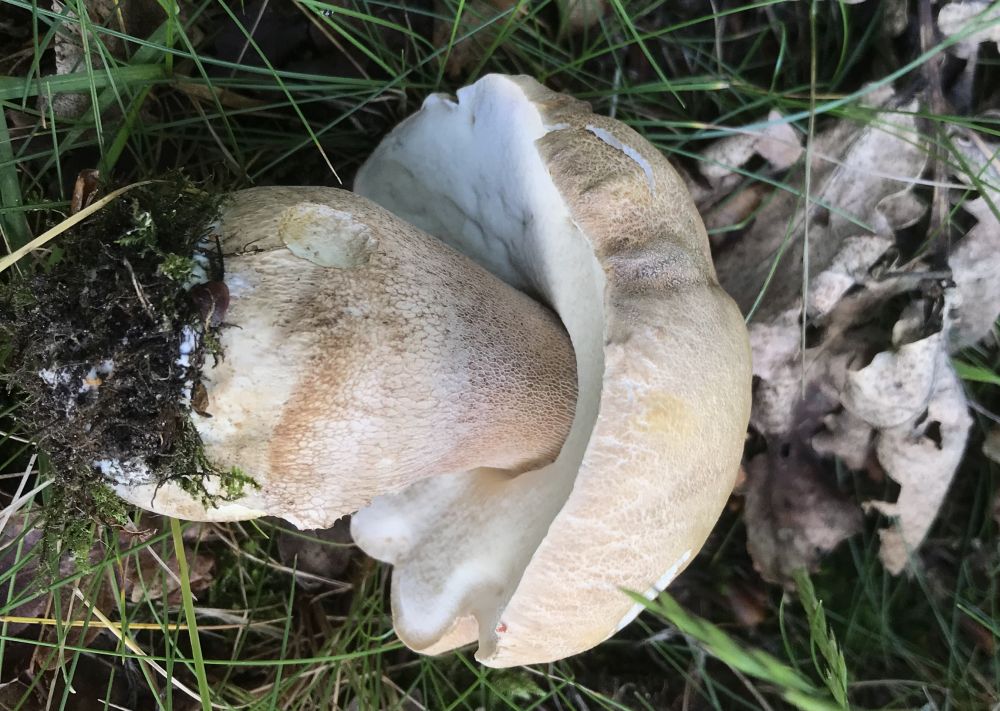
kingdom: Fungi
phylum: Basidiomycota
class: Agaricomycetes
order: Boletales
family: Boletaceae
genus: Boletus
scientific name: Boletus reticulatus
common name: sommer-rørhat
